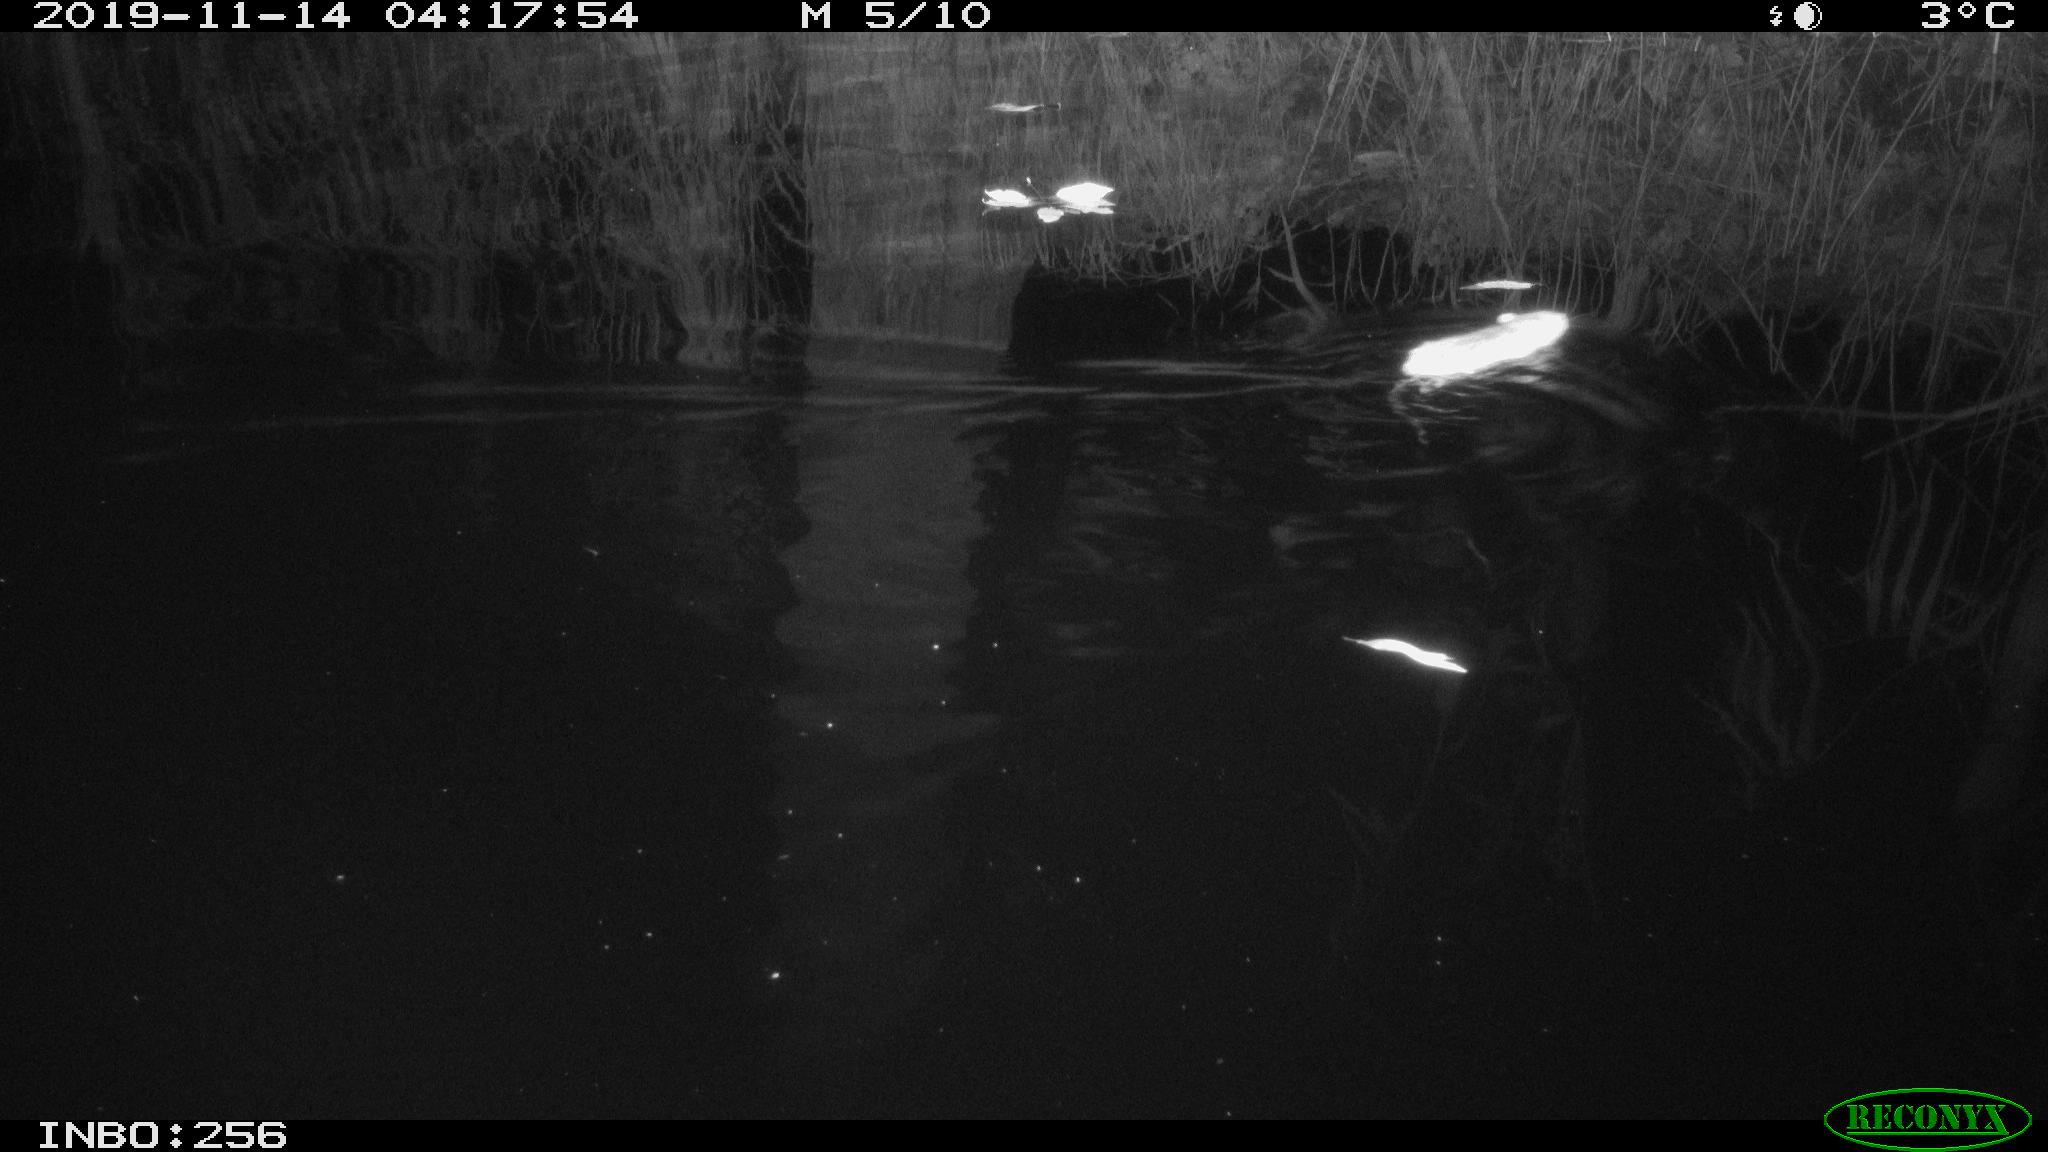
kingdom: Animalia
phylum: Chordata
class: Mammalia
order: Rodentia
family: Muridae
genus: Rattus
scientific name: Rattus norvegicus
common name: Brown rat
